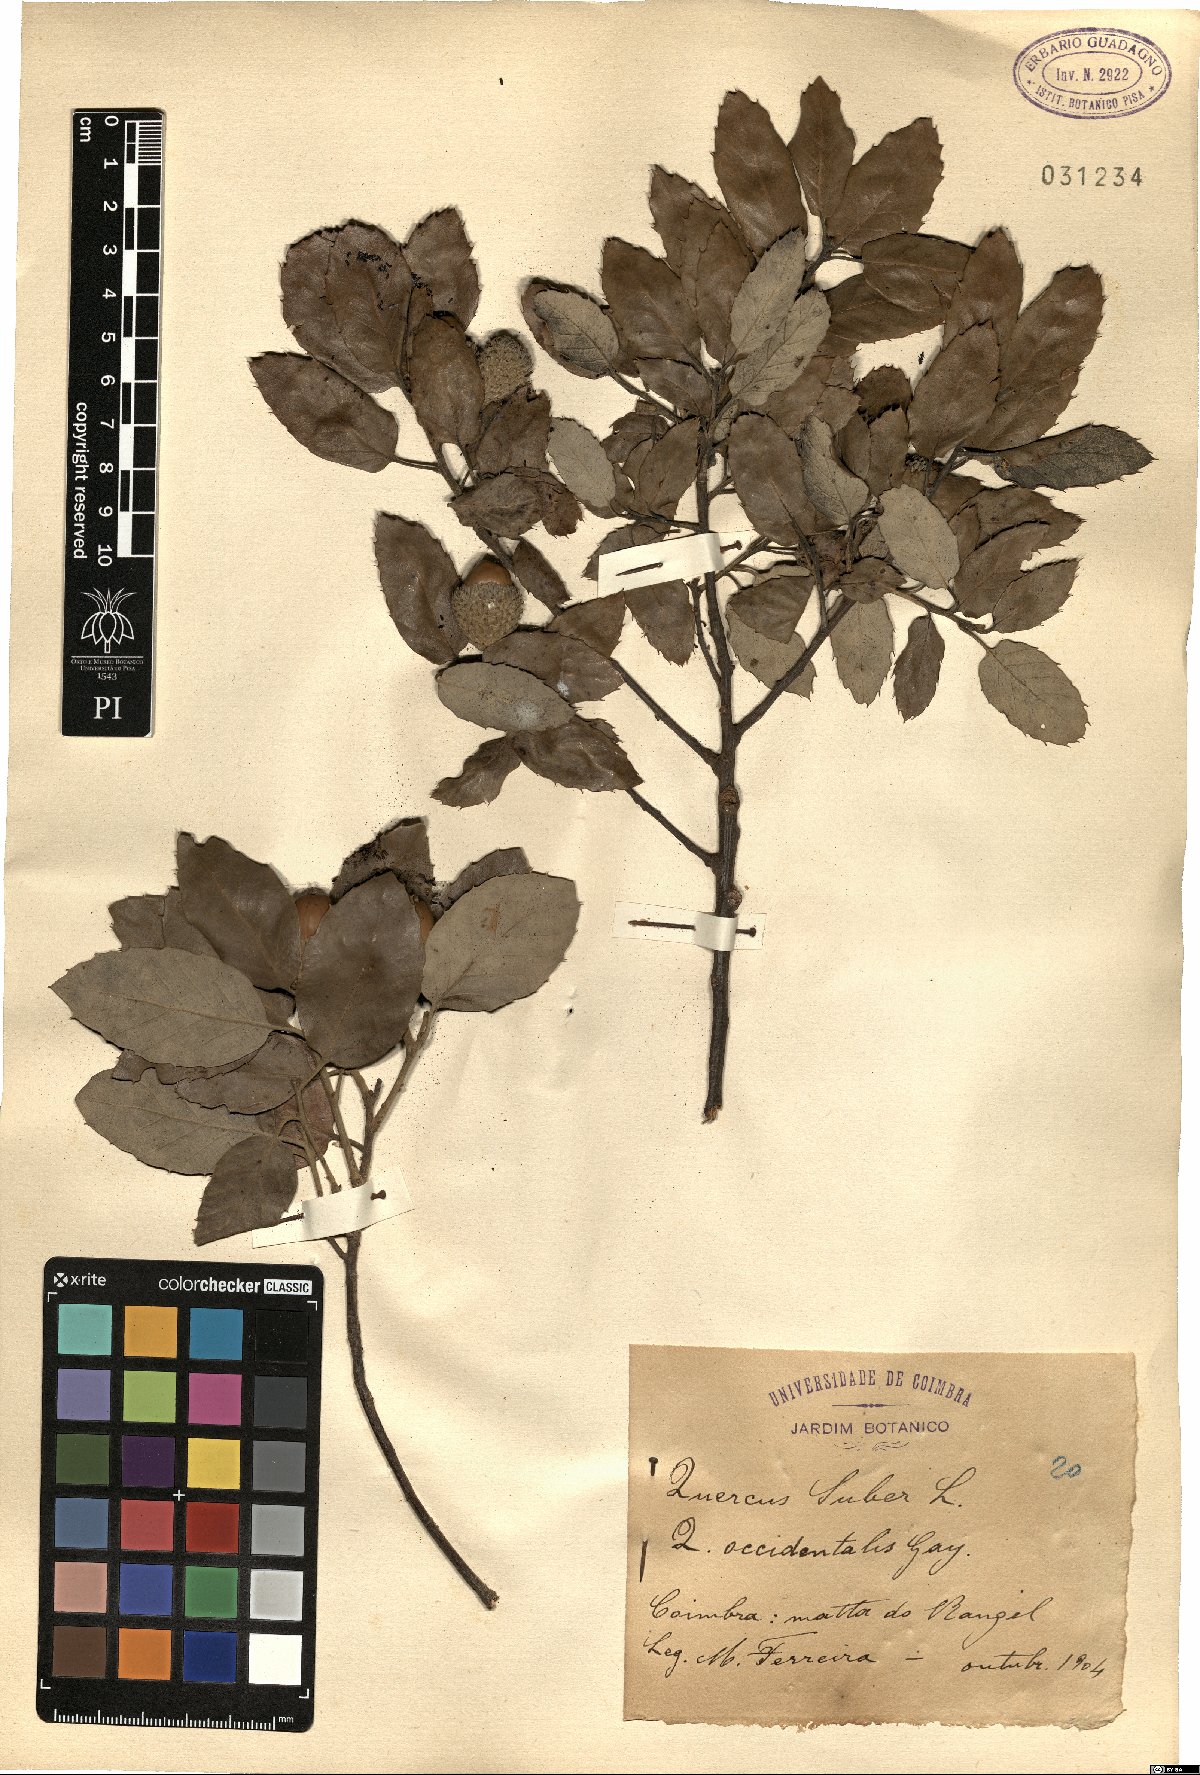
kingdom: Plantae
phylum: Tracheophyta
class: Magnoliopsida
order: Fagales
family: Fagaceae
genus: Quercus
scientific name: Quercus suber
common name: Cork oak
